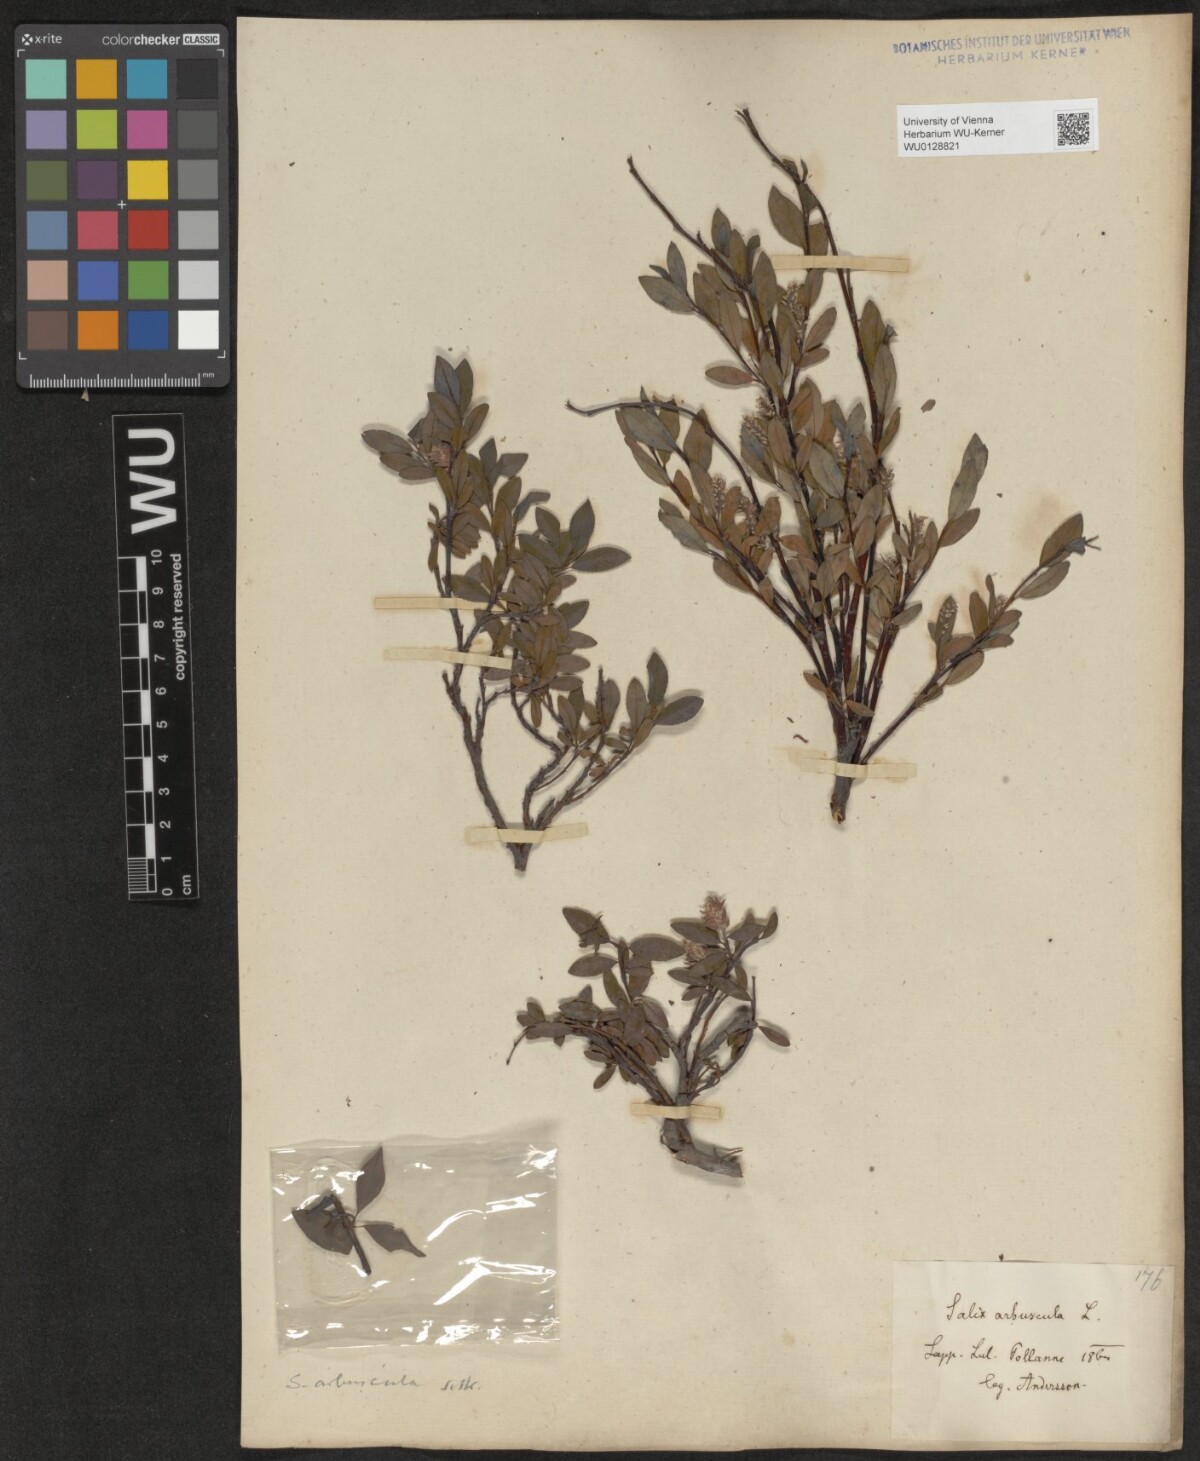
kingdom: Plantae
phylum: Tracheophyta
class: Magnoliopsida
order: Malpighiales
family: Salicaceae
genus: Salix
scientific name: Salix arbuscula
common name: Mountain willow
